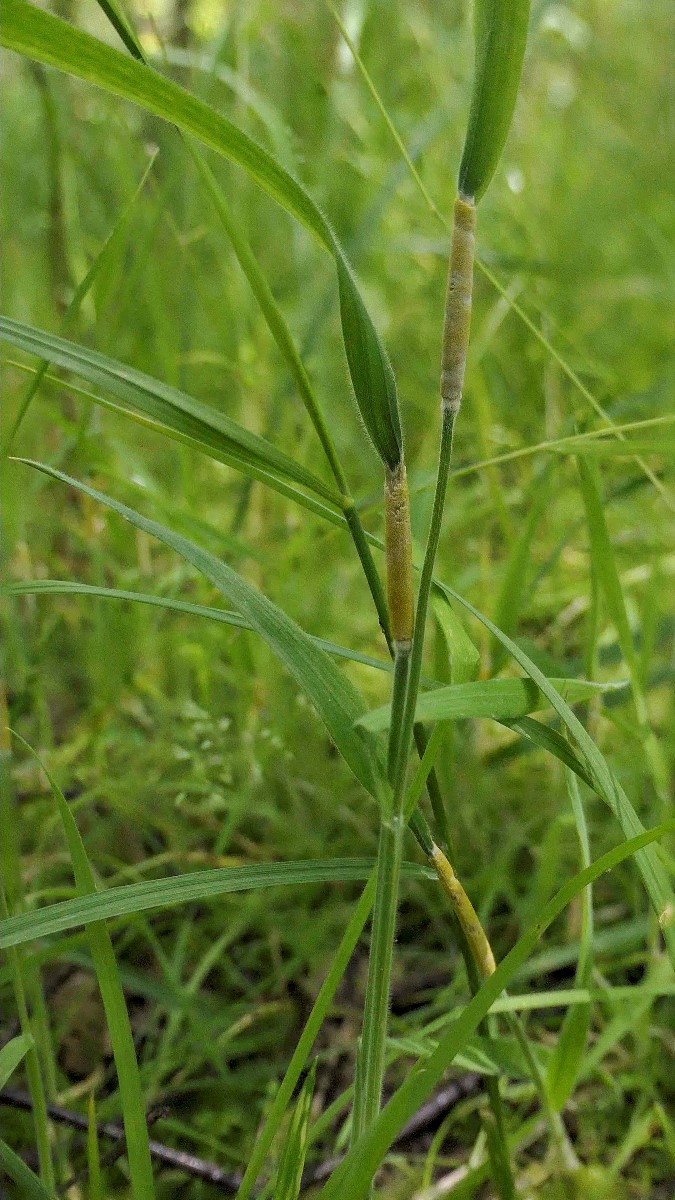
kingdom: Fungi
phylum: Ascomycota
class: Sordariomycetes
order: Hypocreales
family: Clavicipitaceae
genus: Epichloe
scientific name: Epichloe clarkii
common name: fløjlsgræs-kernerør
